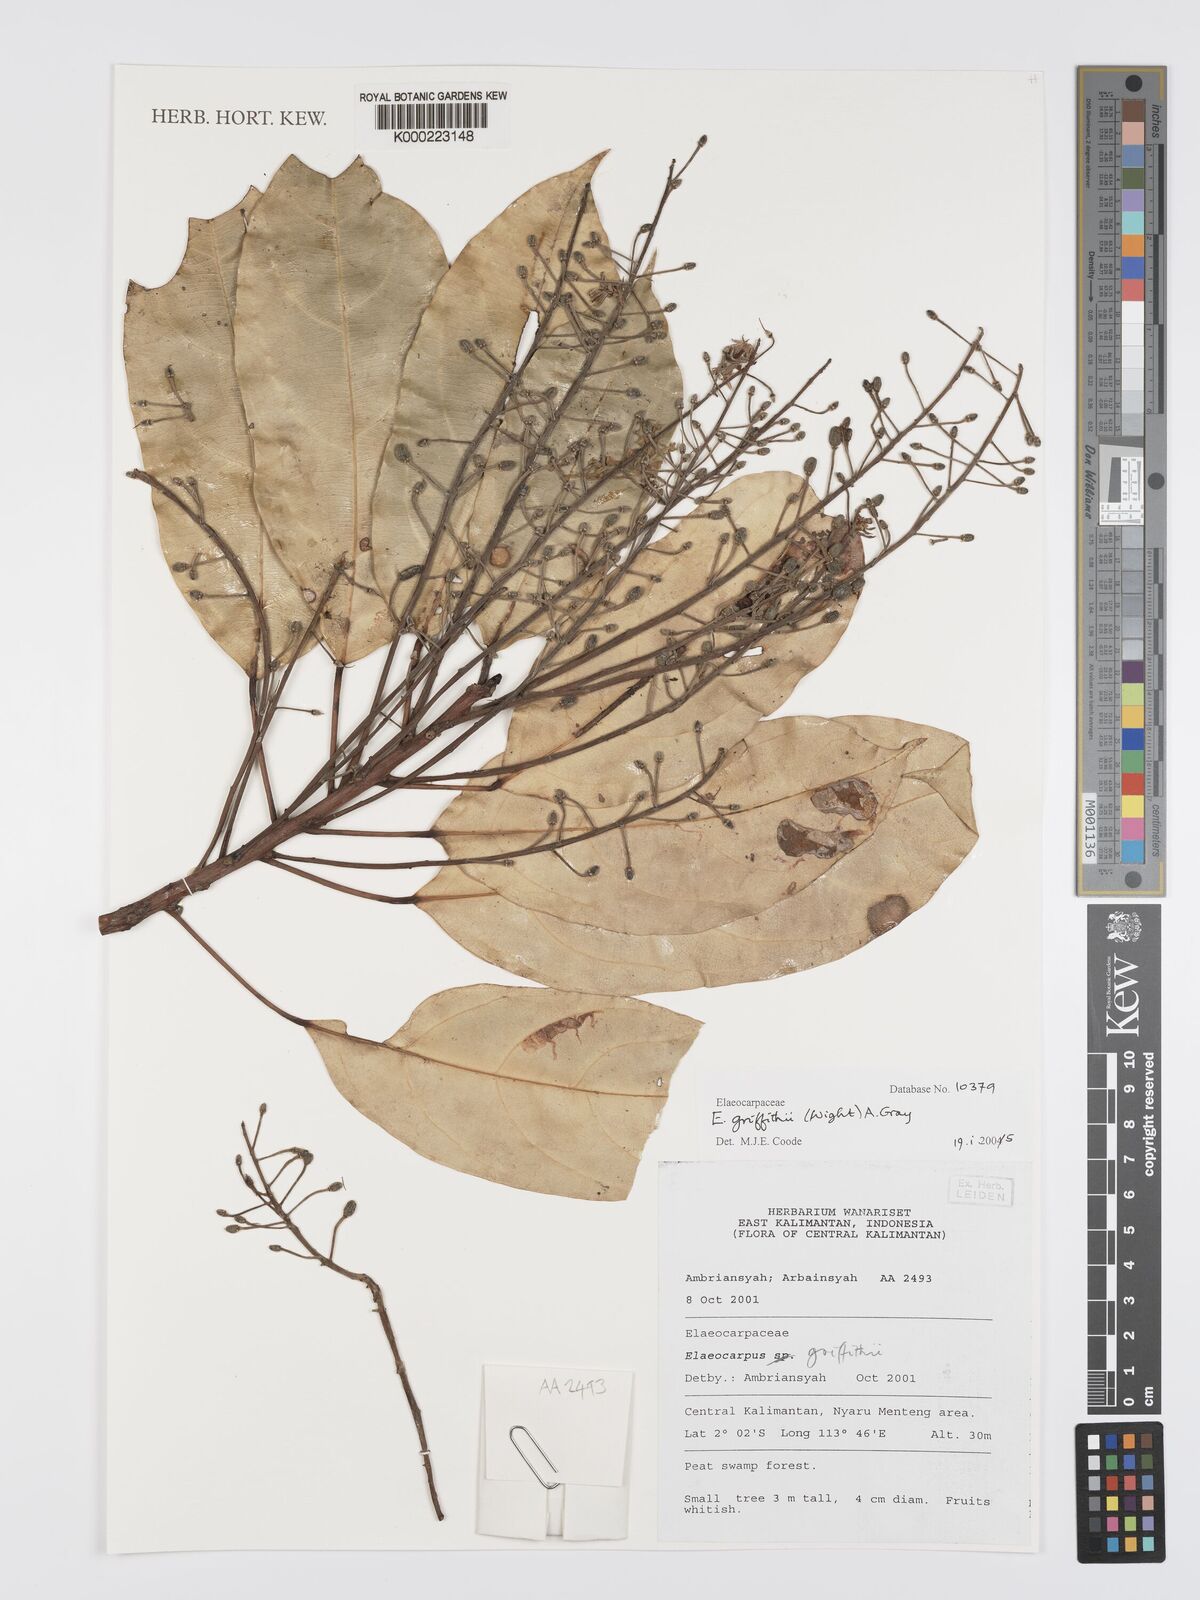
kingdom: Plantae
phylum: Tracheophyta
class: Magnoliopsida
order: Oxalidales
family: Elaeocarpaceae
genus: Elaeocarpus
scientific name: Elaeocarpus griffithii
